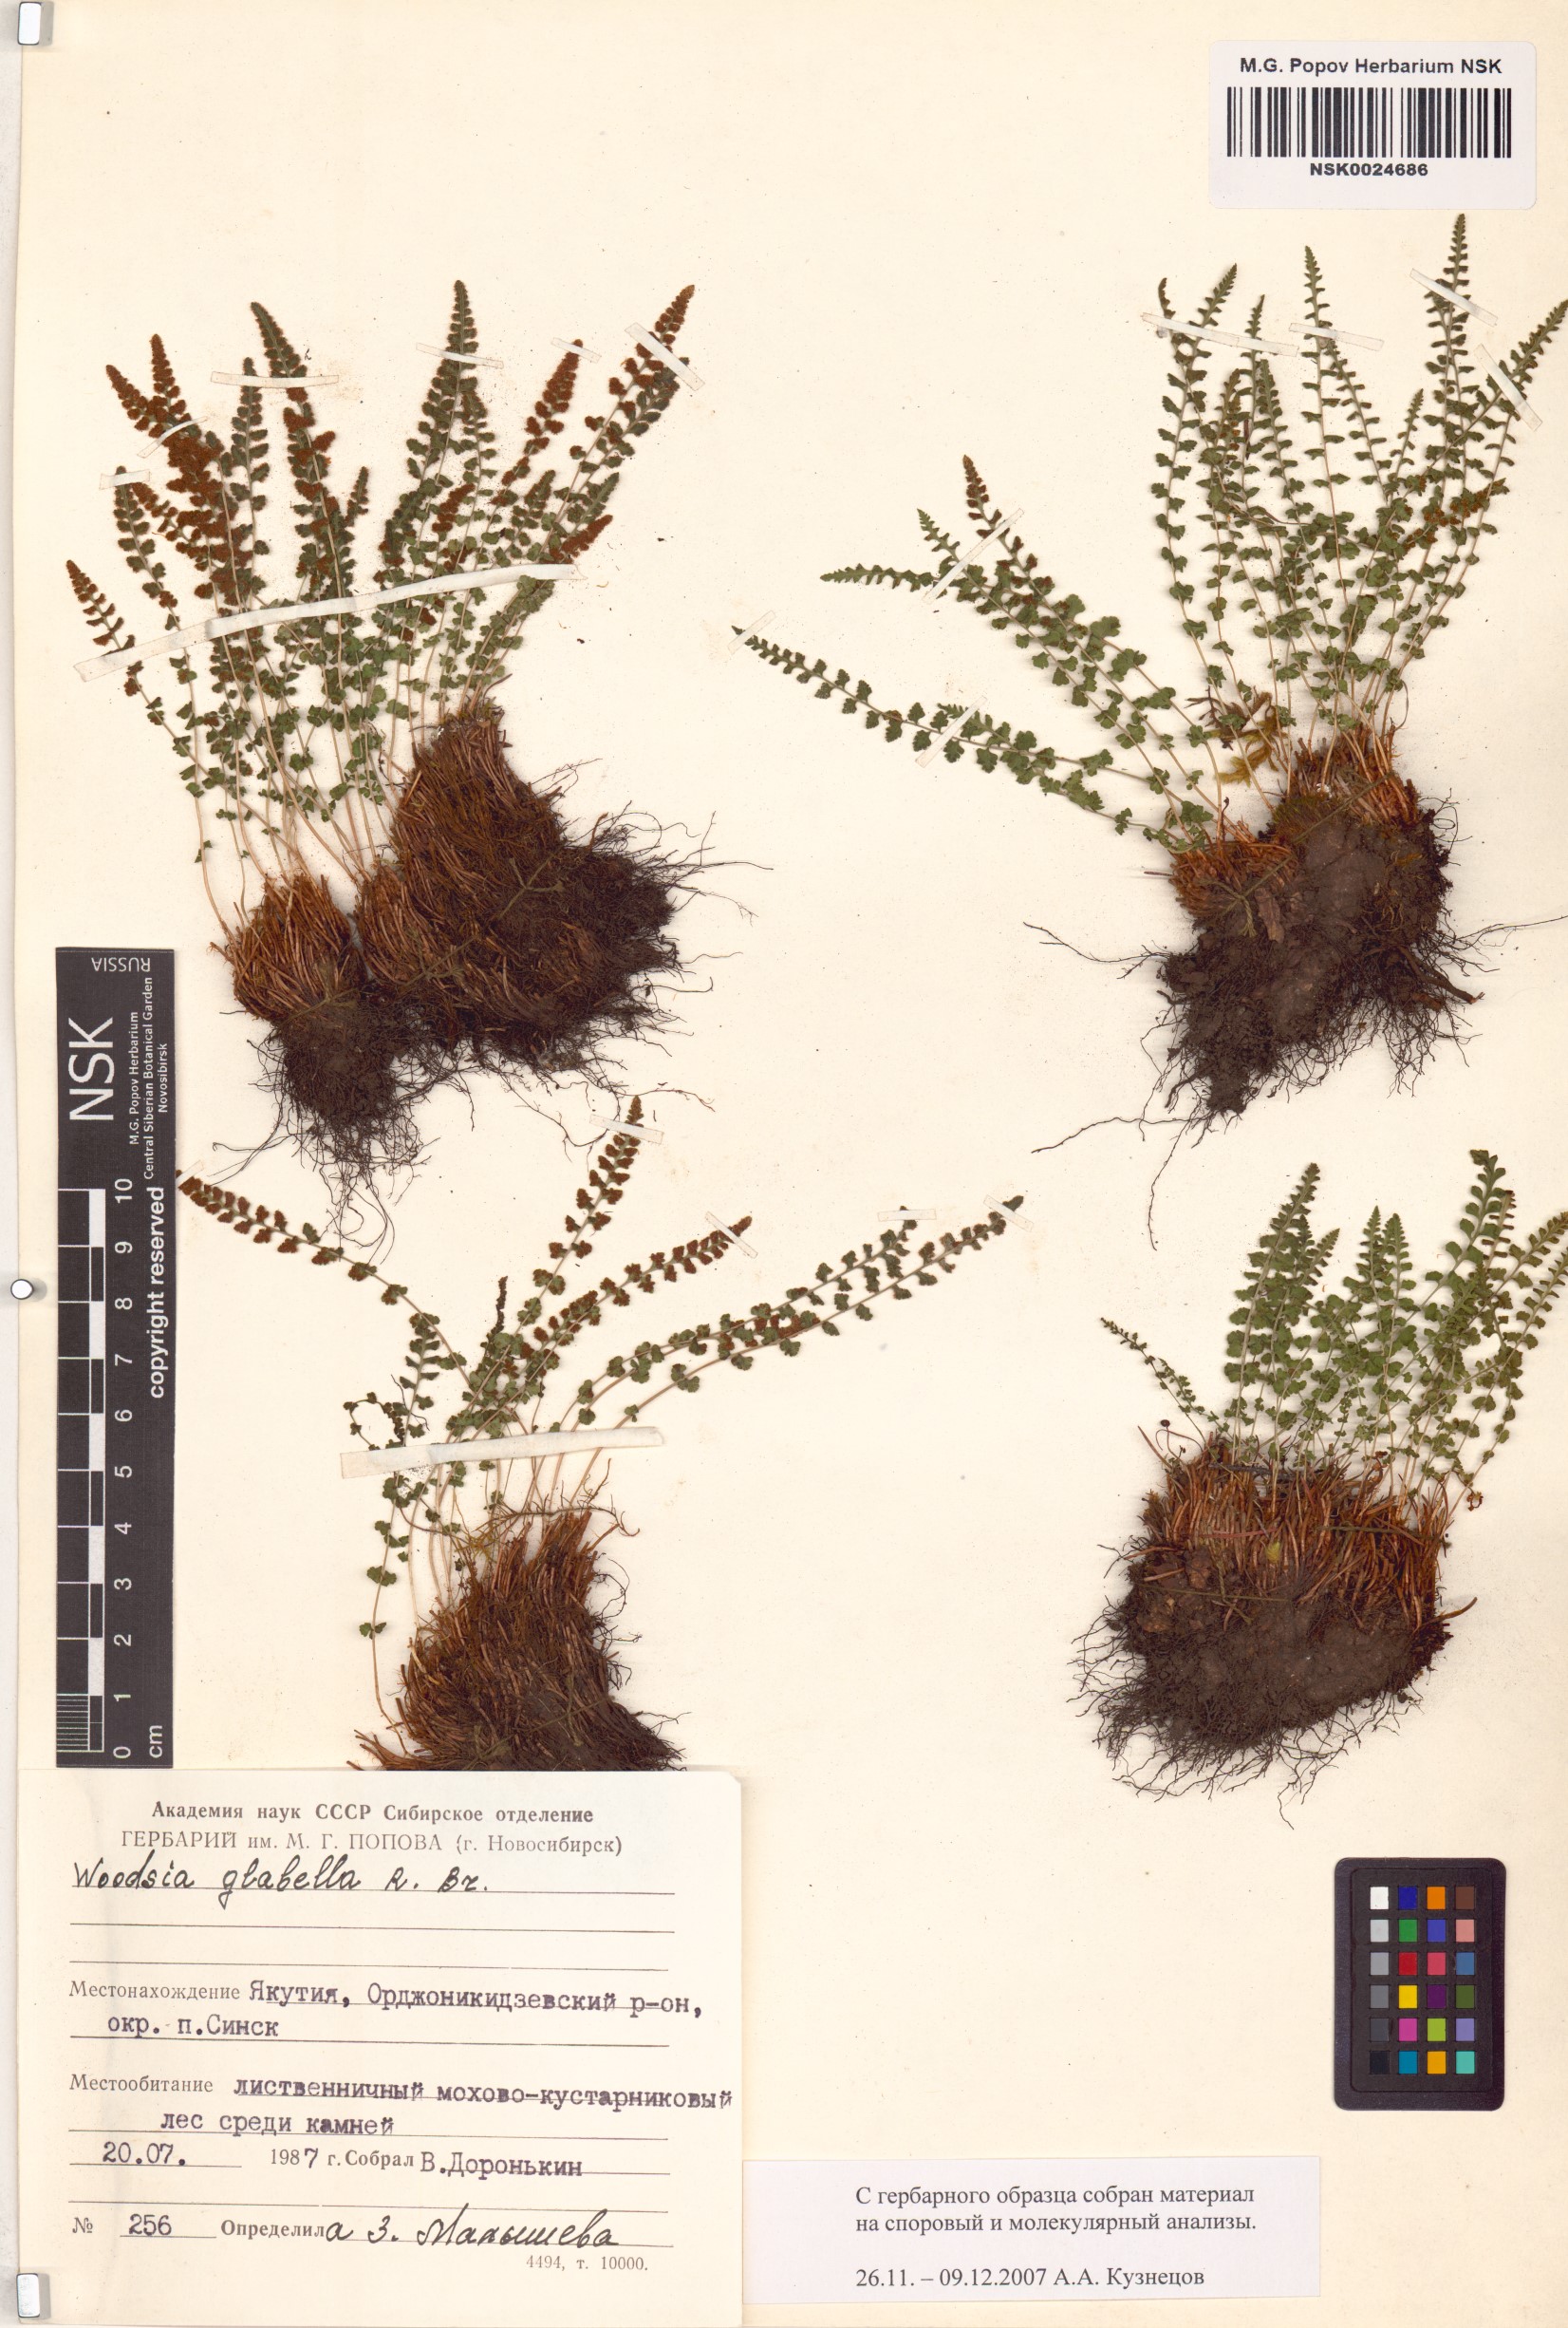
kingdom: Plantae
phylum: Tracheophyta
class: Polypodiopsida
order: Polypodiales
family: Woodsiaceae
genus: Woodsia
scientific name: Woodsia glabella
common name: Smooth woodsia
